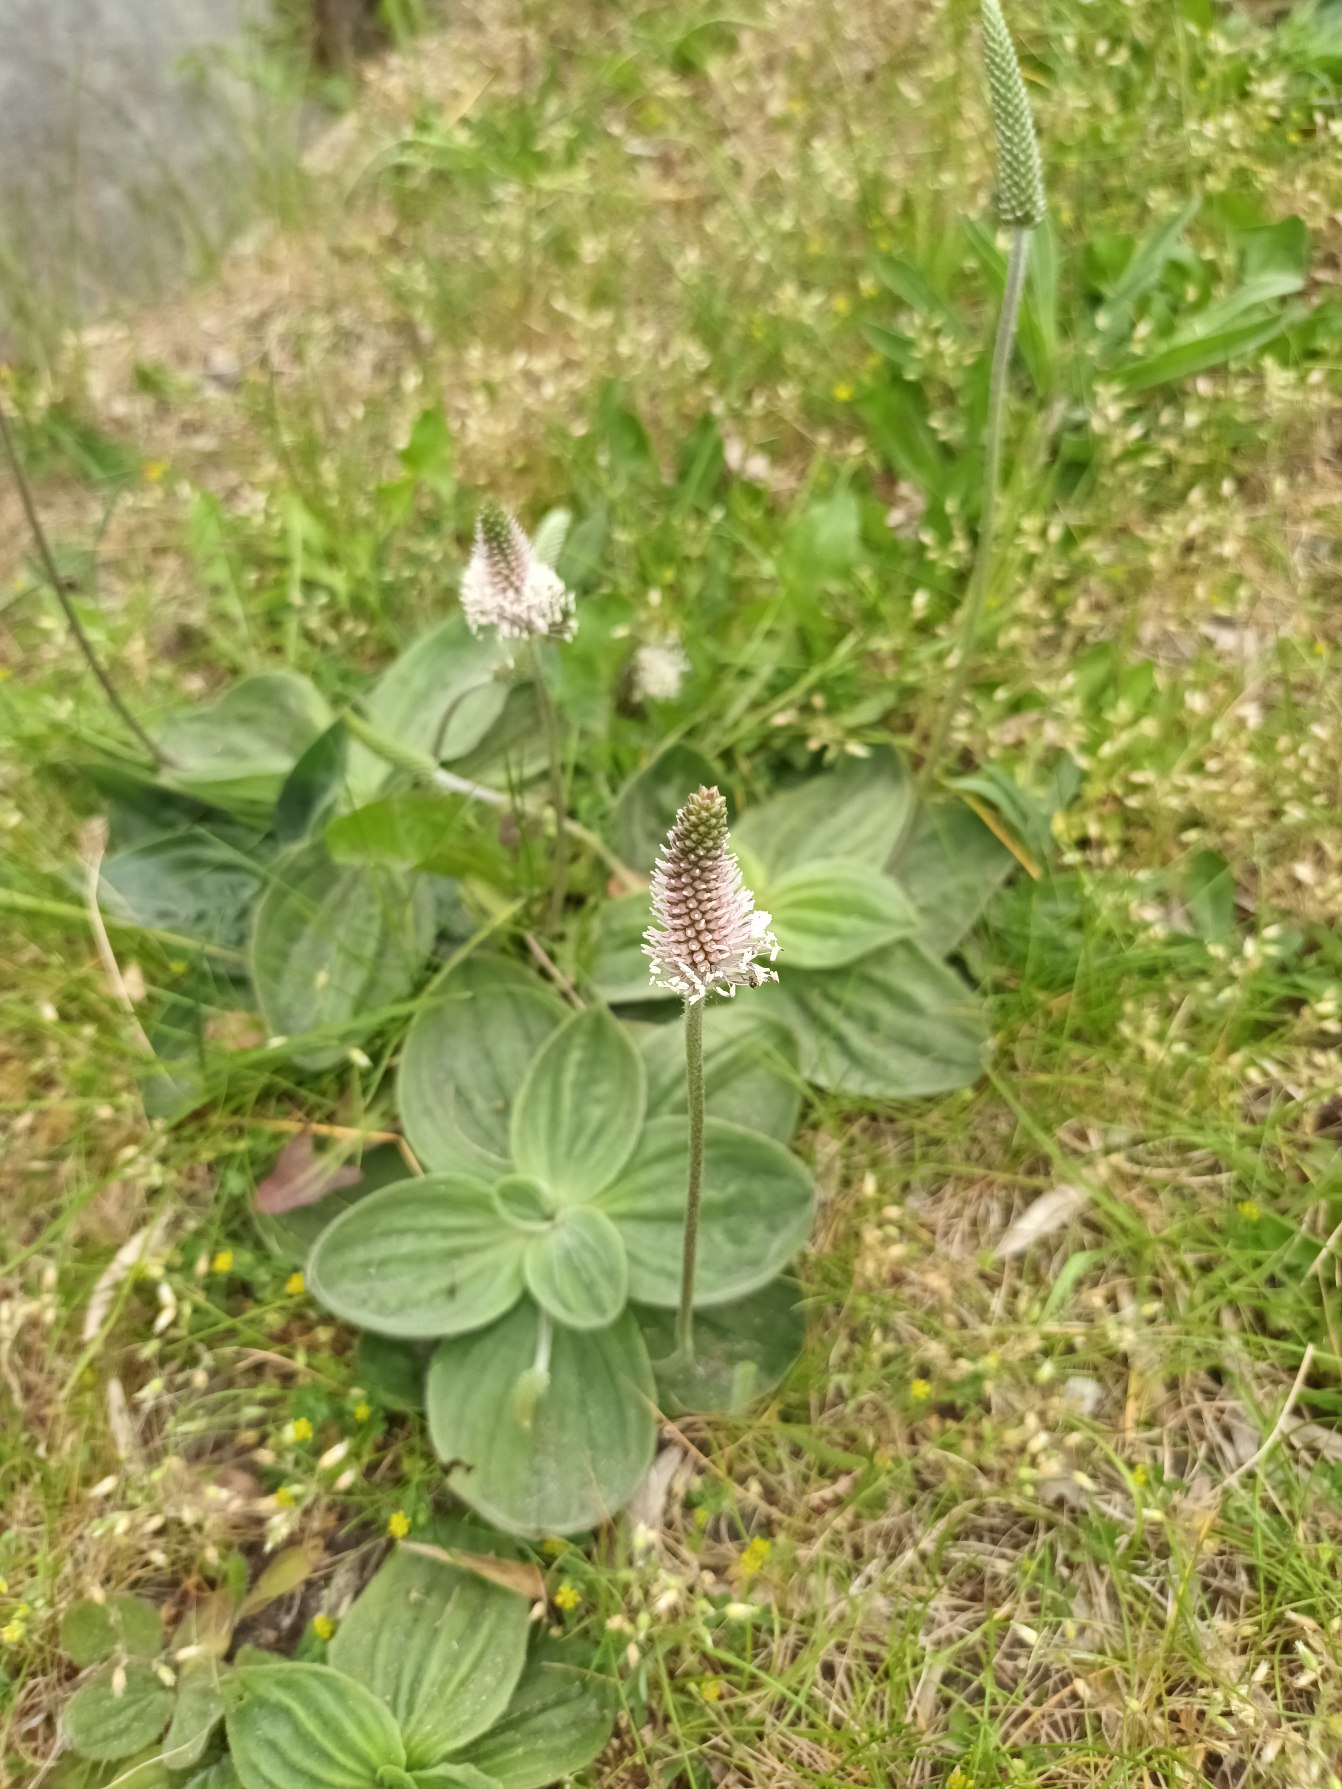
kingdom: Plantae
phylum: Tracheophyta
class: Magnoliopsida
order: Lamiales
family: Plantaginaceae
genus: Plantago
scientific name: Plantago media
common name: Dunet vejbred
